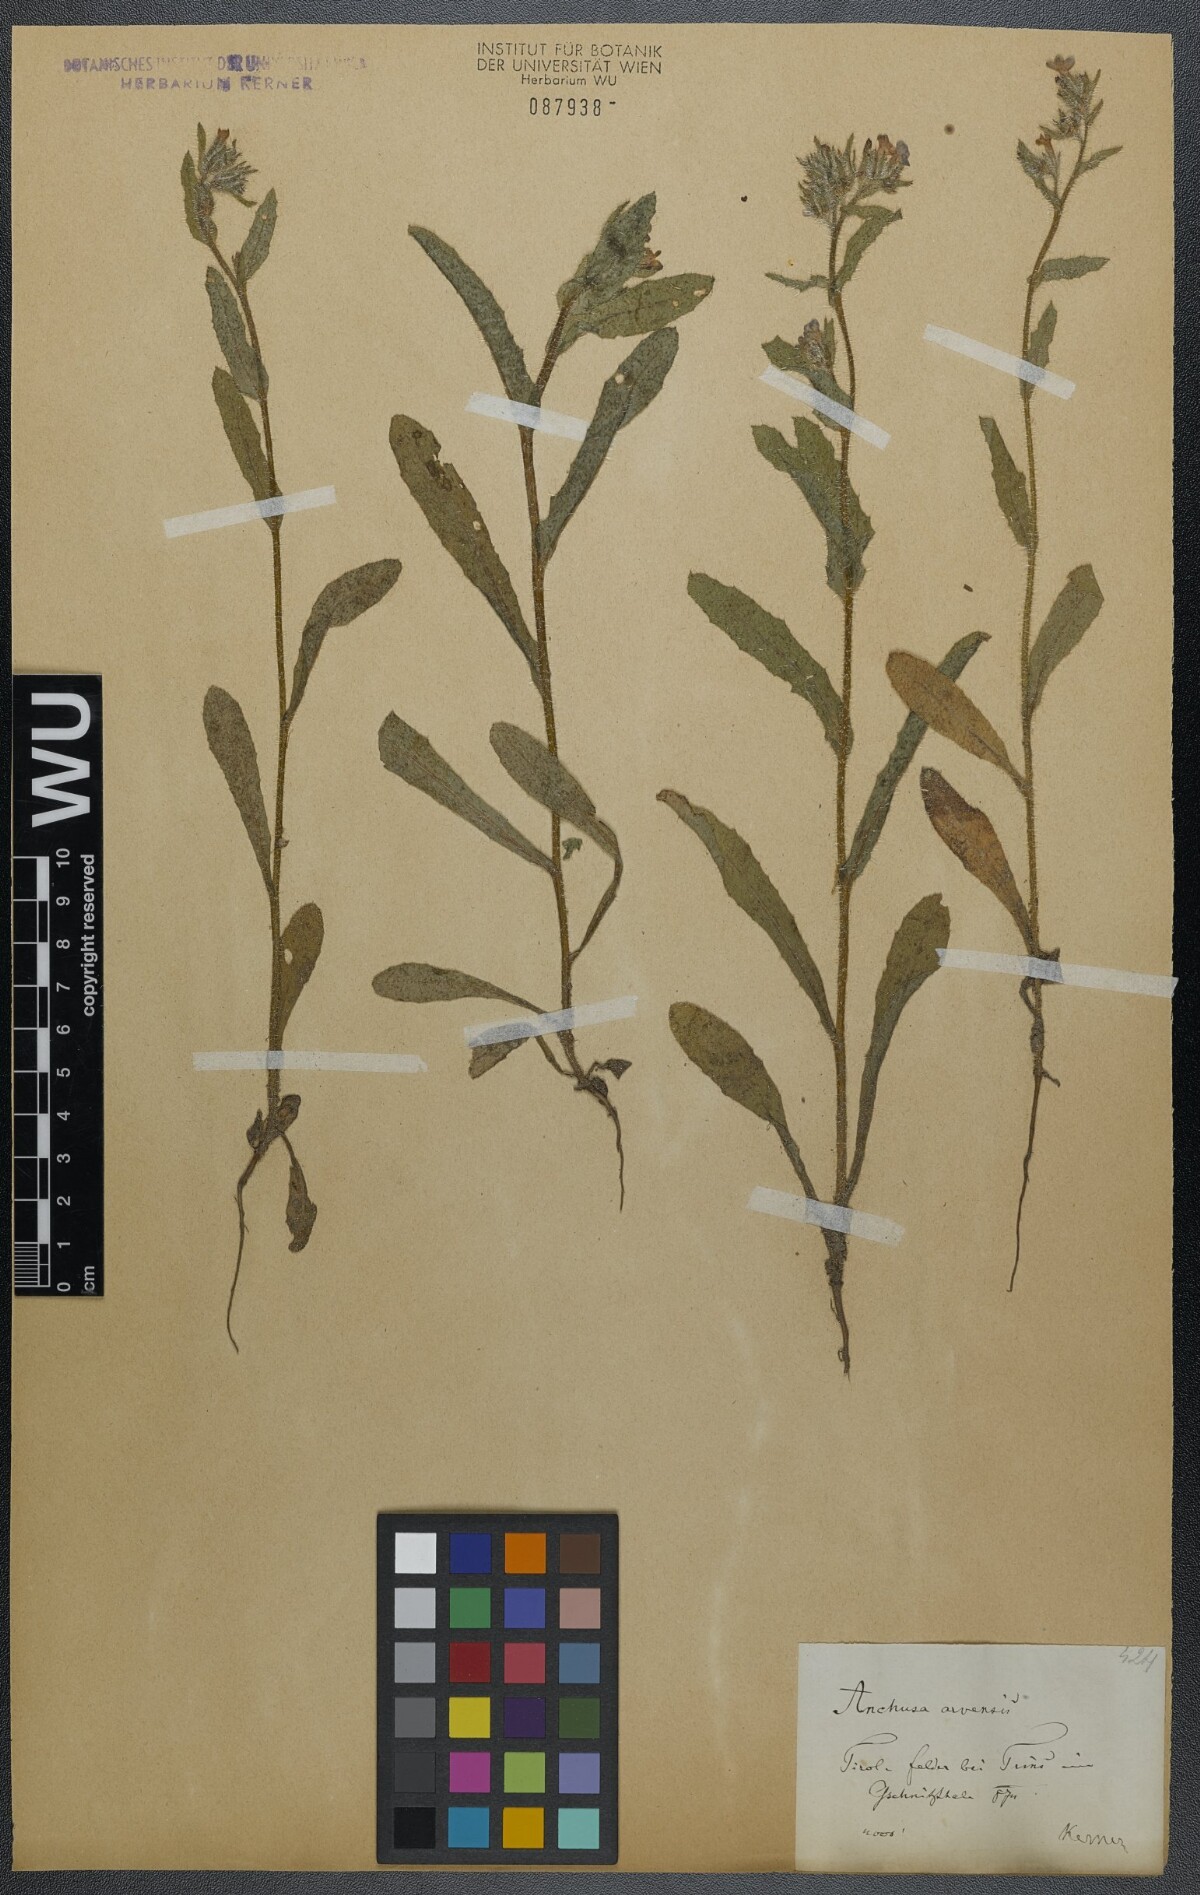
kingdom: Plantae
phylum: Tracheophyta
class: Magnoliopsida
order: Boraginales
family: Boraginaceae
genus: Lycopsis
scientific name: Lycopsis arvensis
